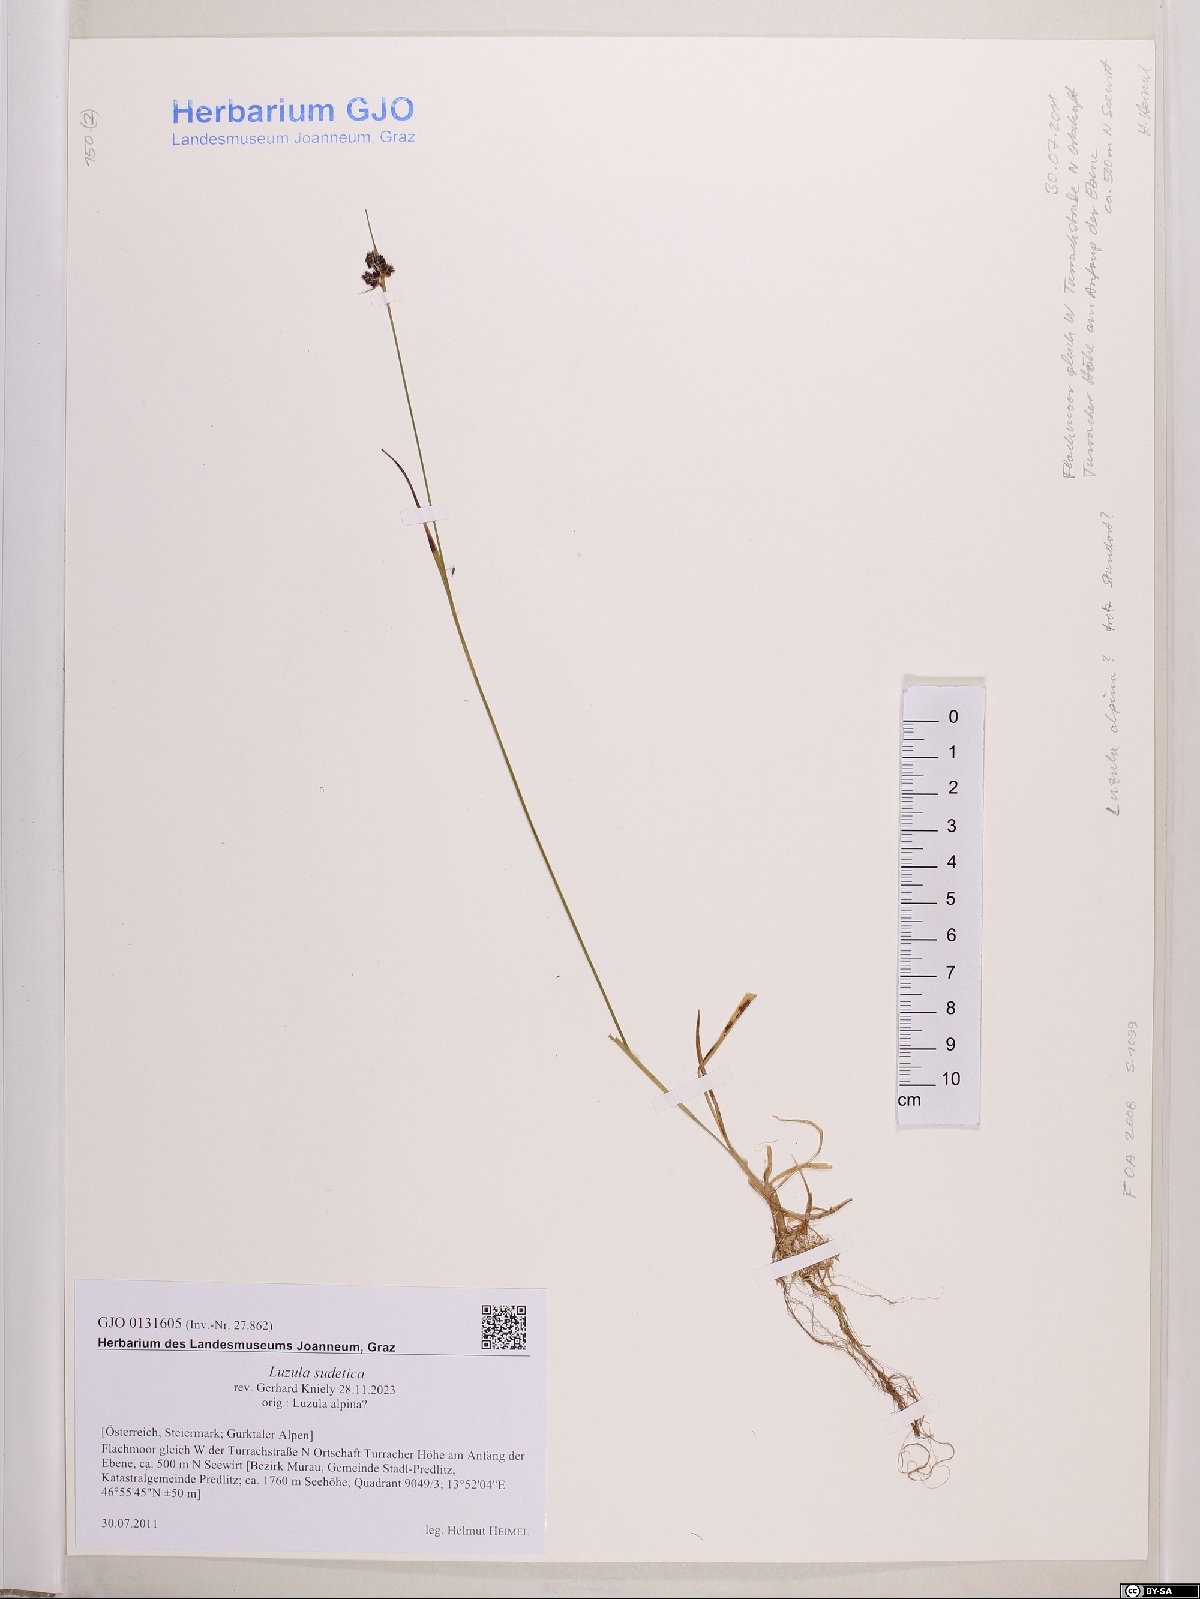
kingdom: Plantae
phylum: Tracheophyta
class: Liliopsida
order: Poales
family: Juncaceae
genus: Luzula
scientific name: Luzula sudetica
